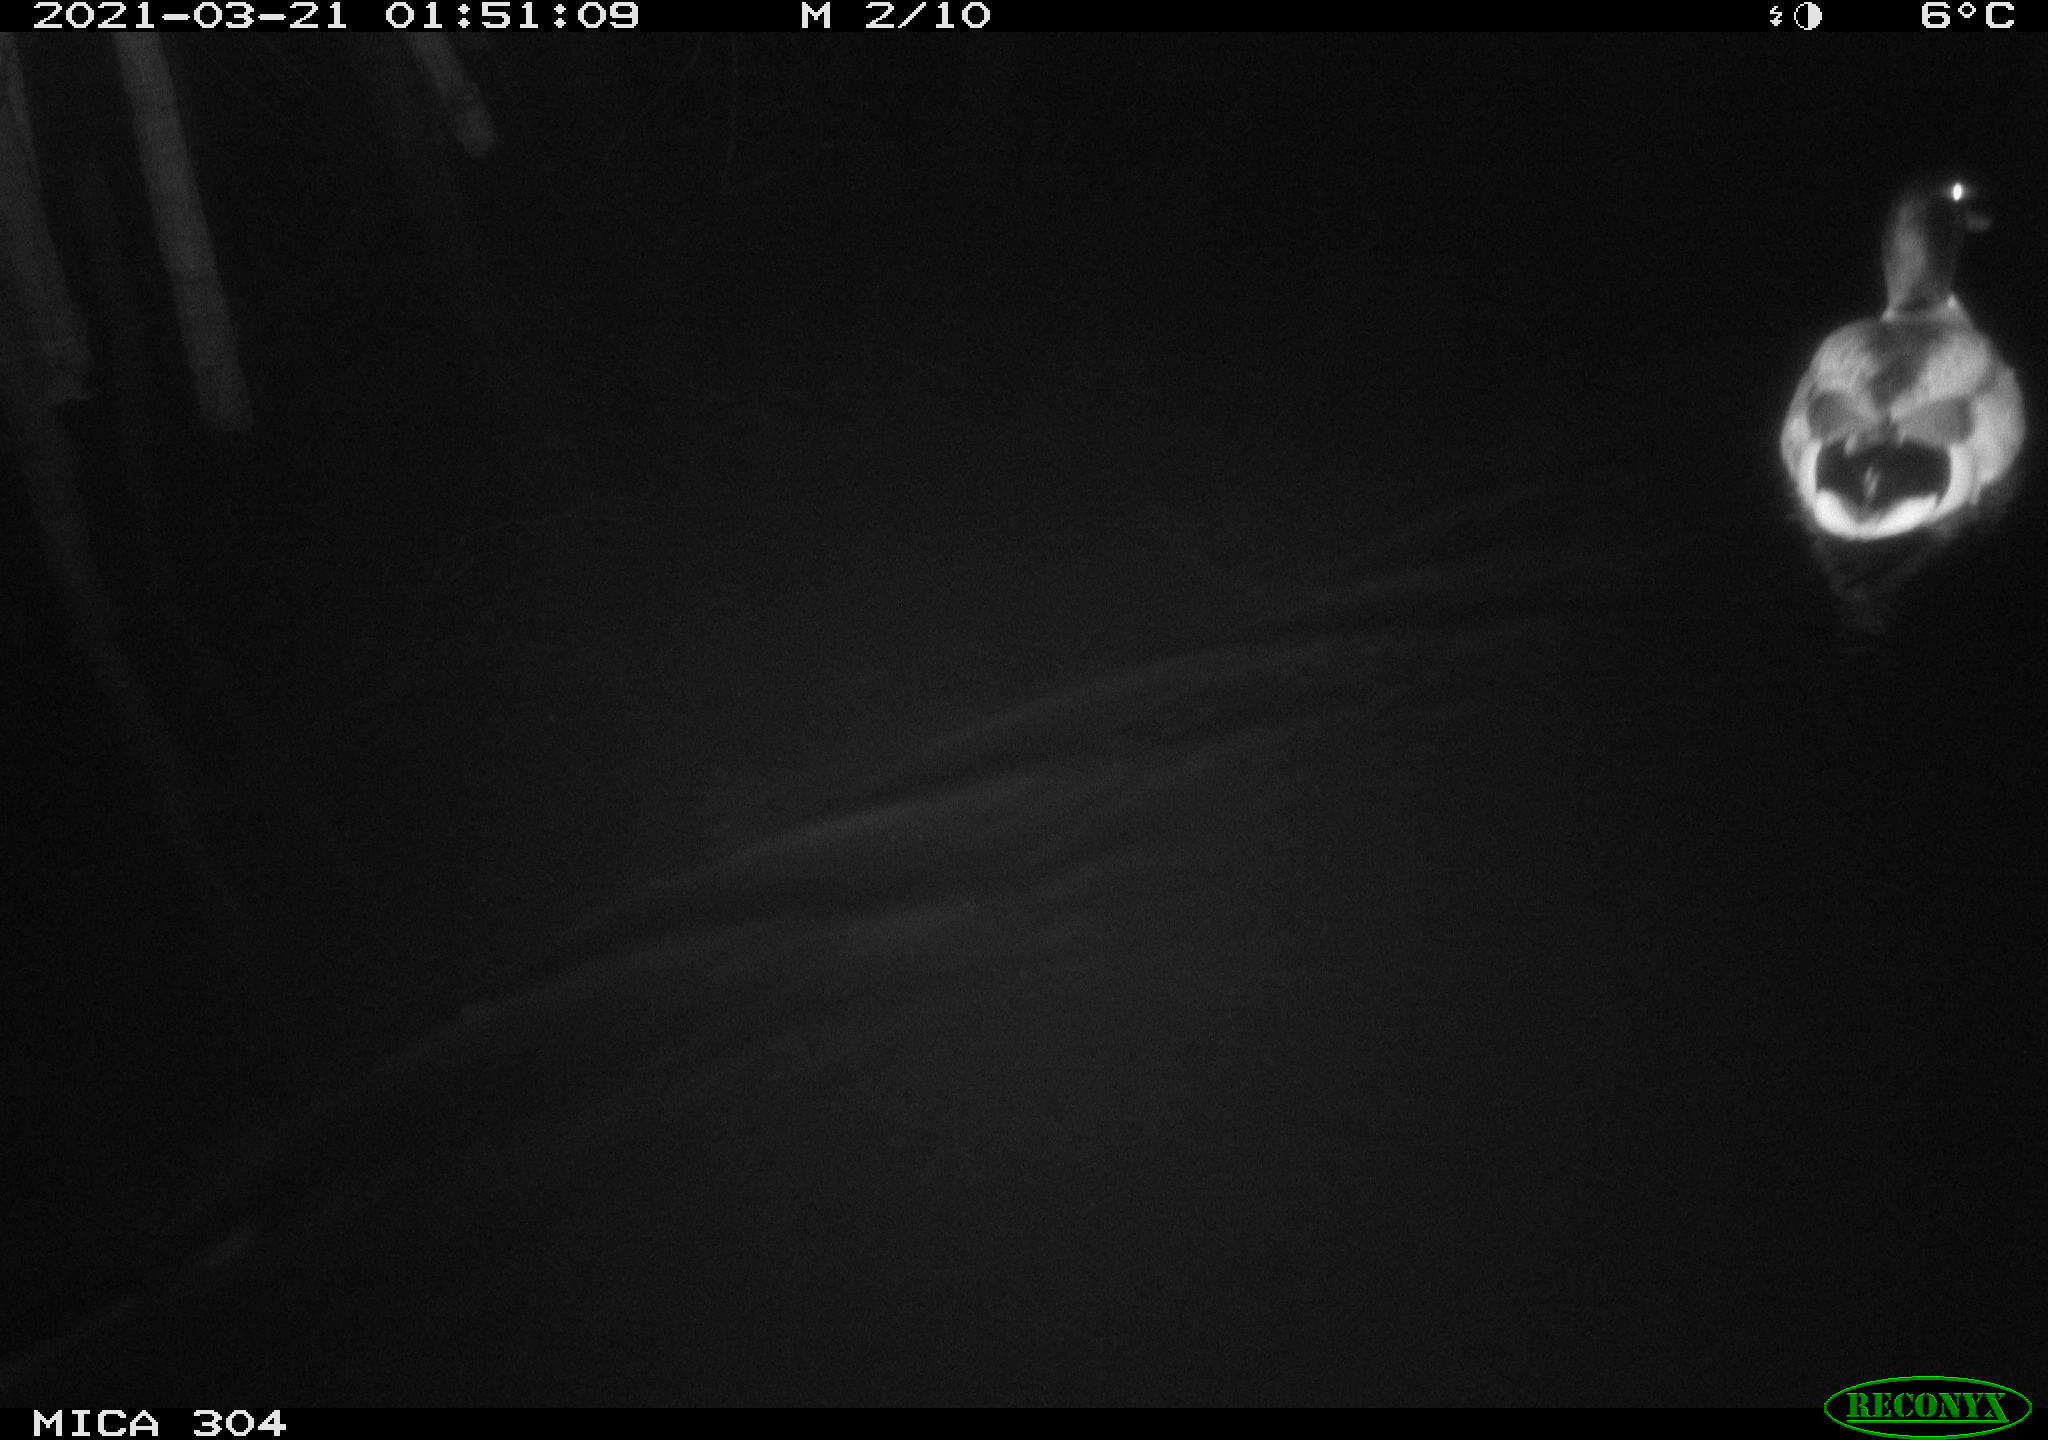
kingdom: Animalia
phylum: Chordata
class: Aves
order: Anseriformes
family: Anatidae
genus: Anas
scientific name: Anas platyrhynchos
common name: Mallard
